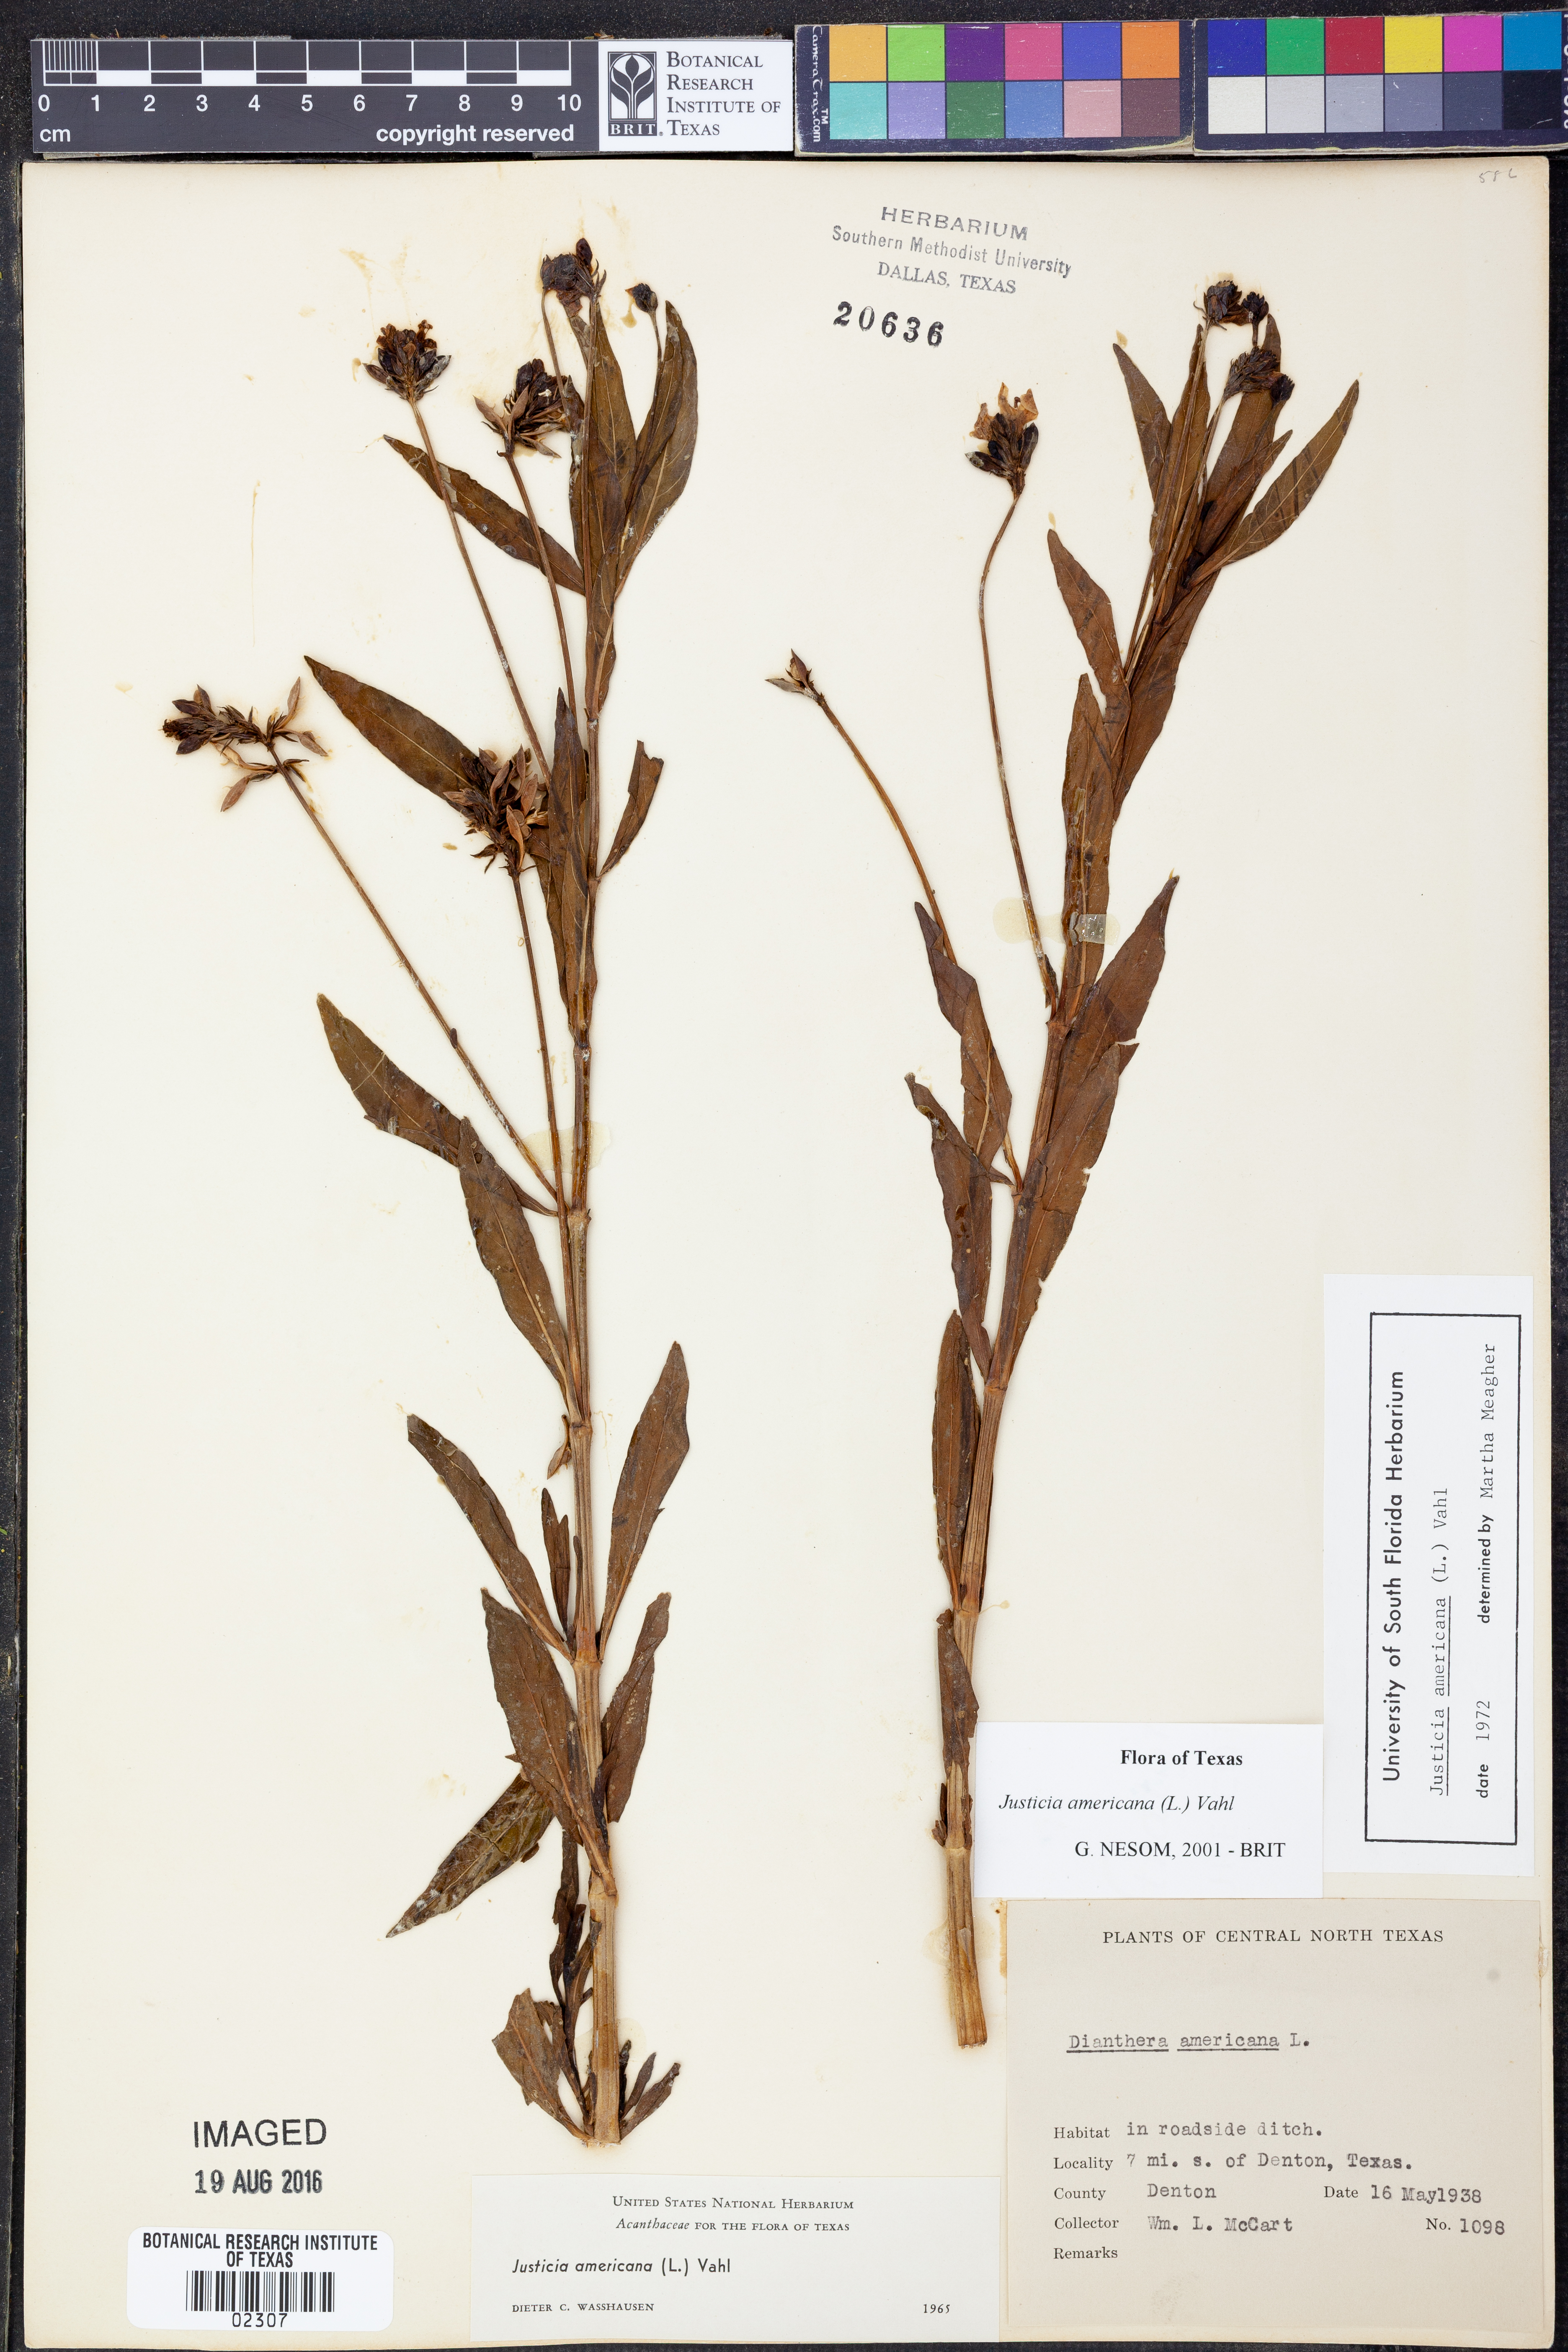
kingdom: Plantae
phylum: Tracheophyta
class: Magnoliopsida
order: Lamiales
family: Acanthaceae
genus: Dianthera
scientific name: Dianthera americana
